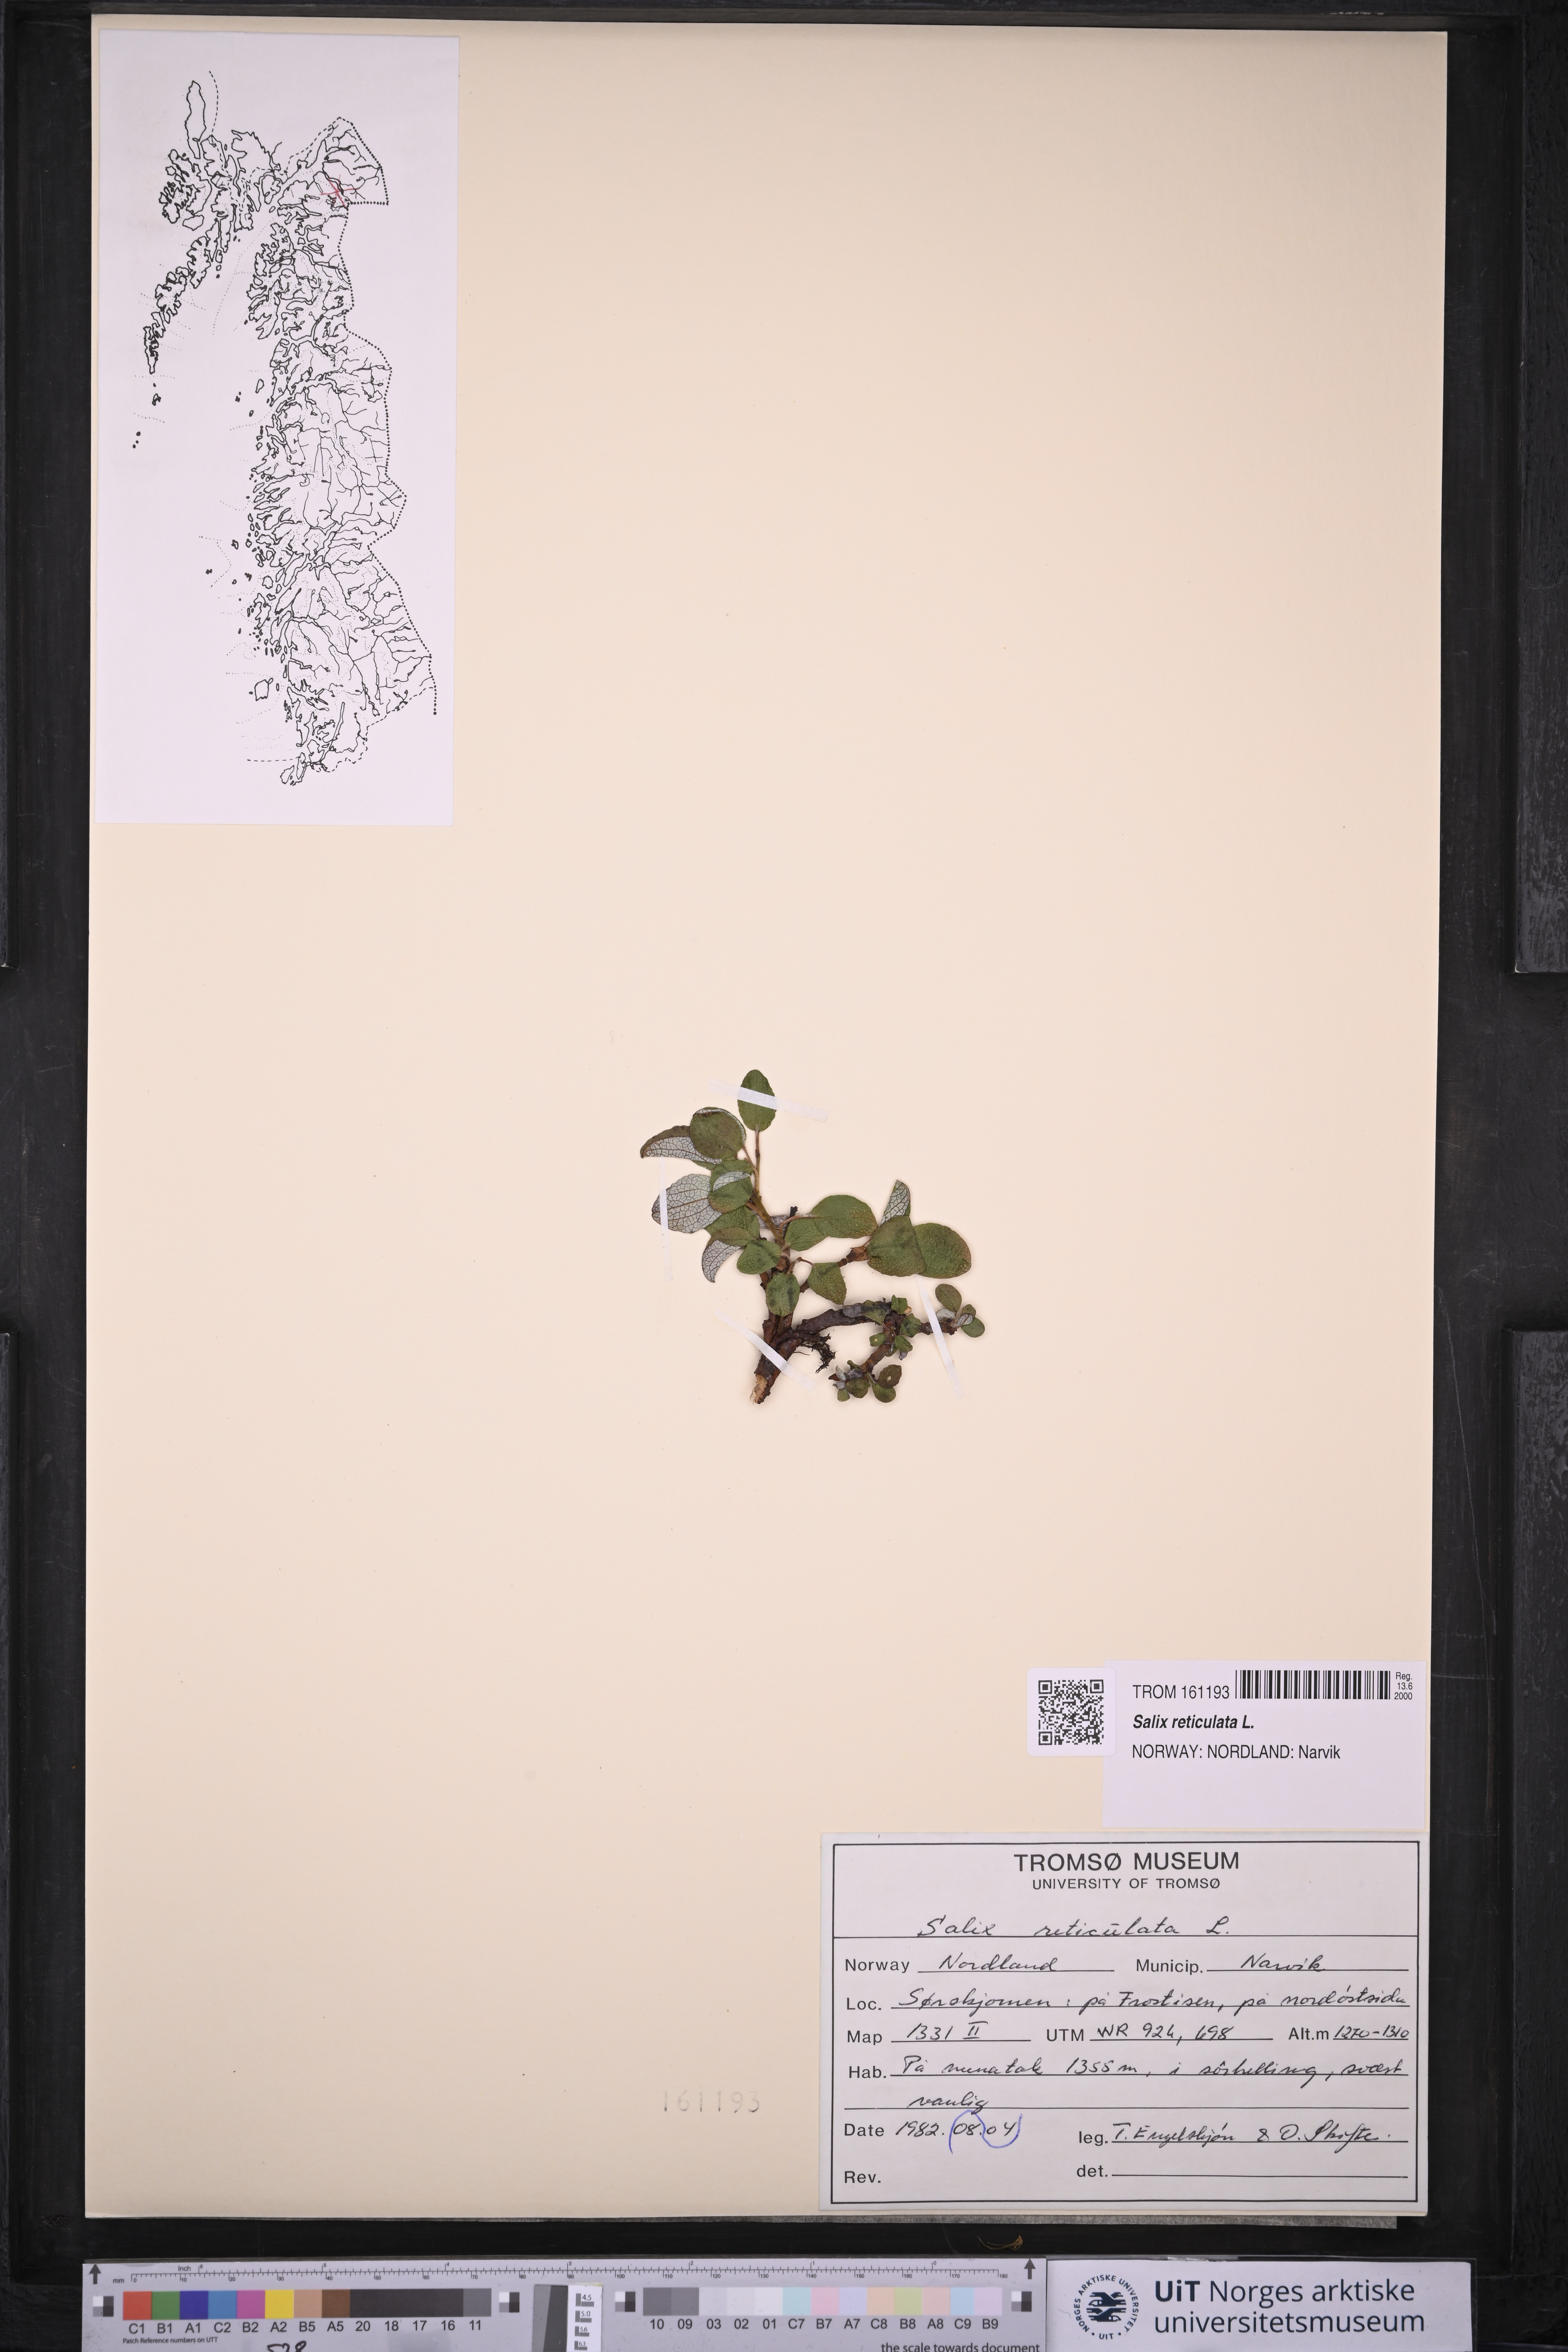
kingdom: Plantae
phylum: Tracheophyta
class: Magnoliopsida
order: Malpighiales
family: Salicaceae
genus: Salix
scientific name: Salix reticulata
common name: Net-leaved willow
